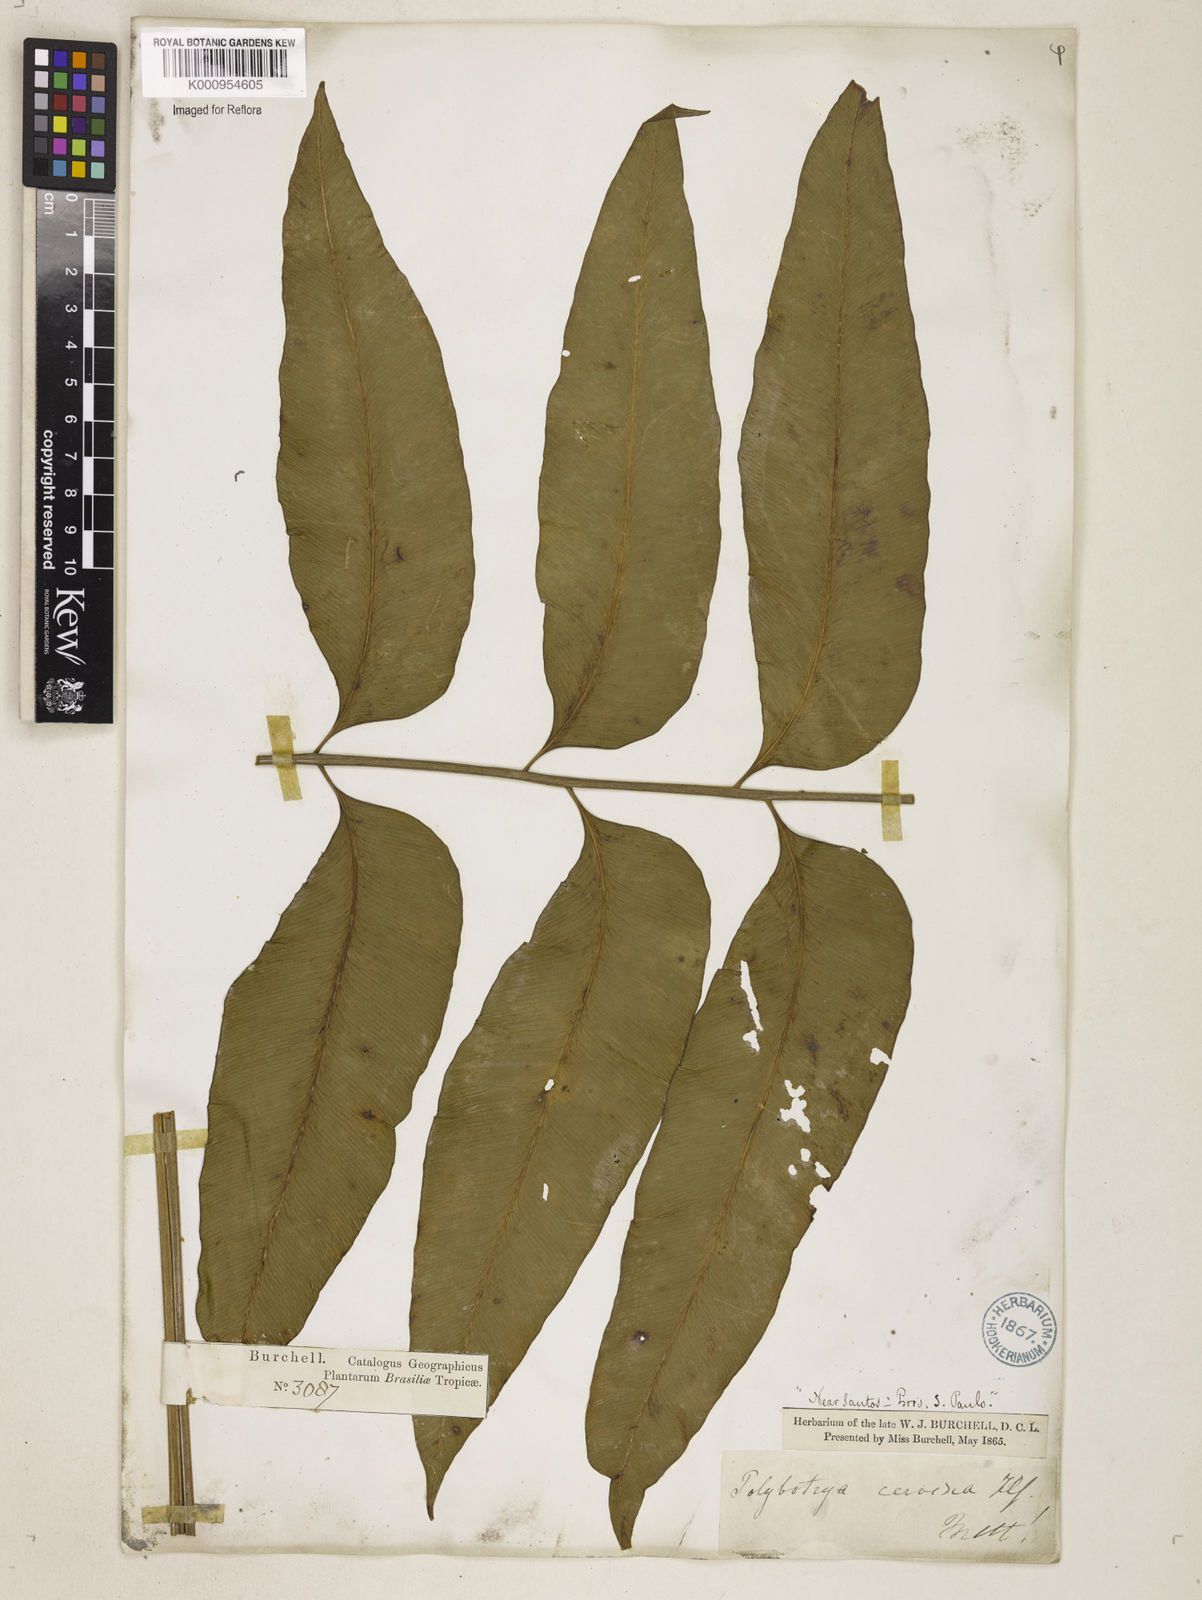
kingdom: Plantae
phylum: Tracheophyta
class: Polypodiopsida
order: Polypodiales
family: Dryopteridaceae
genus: Polystichum
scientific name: Polystichum
